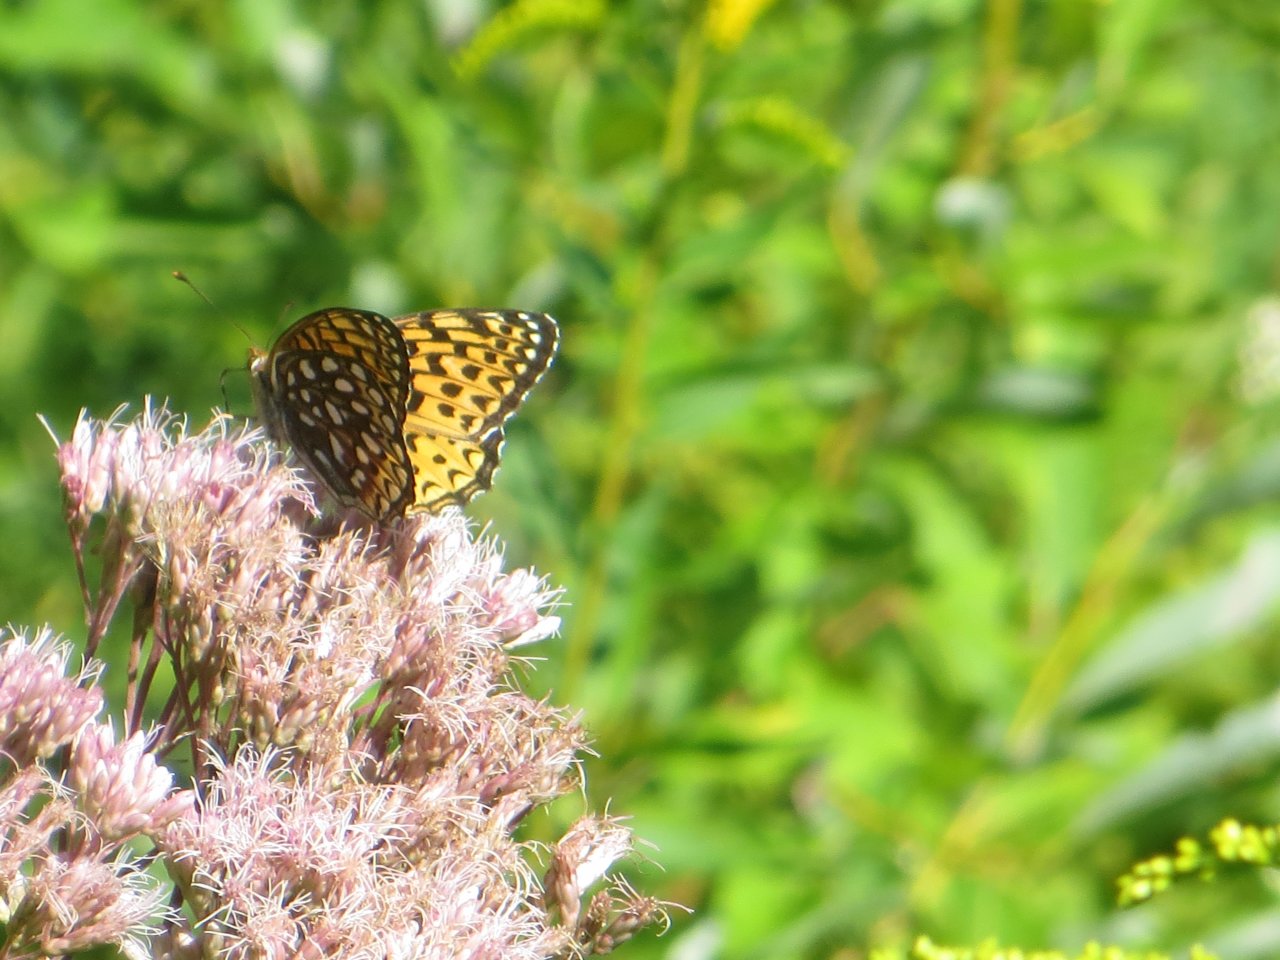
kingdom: Animalia
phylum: Arthropoda
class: Insecta
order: Lepidoptera
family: Nymphalidae
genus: Speyeria
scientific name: Speyeria atlantis
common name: Atlantis Fritillary
